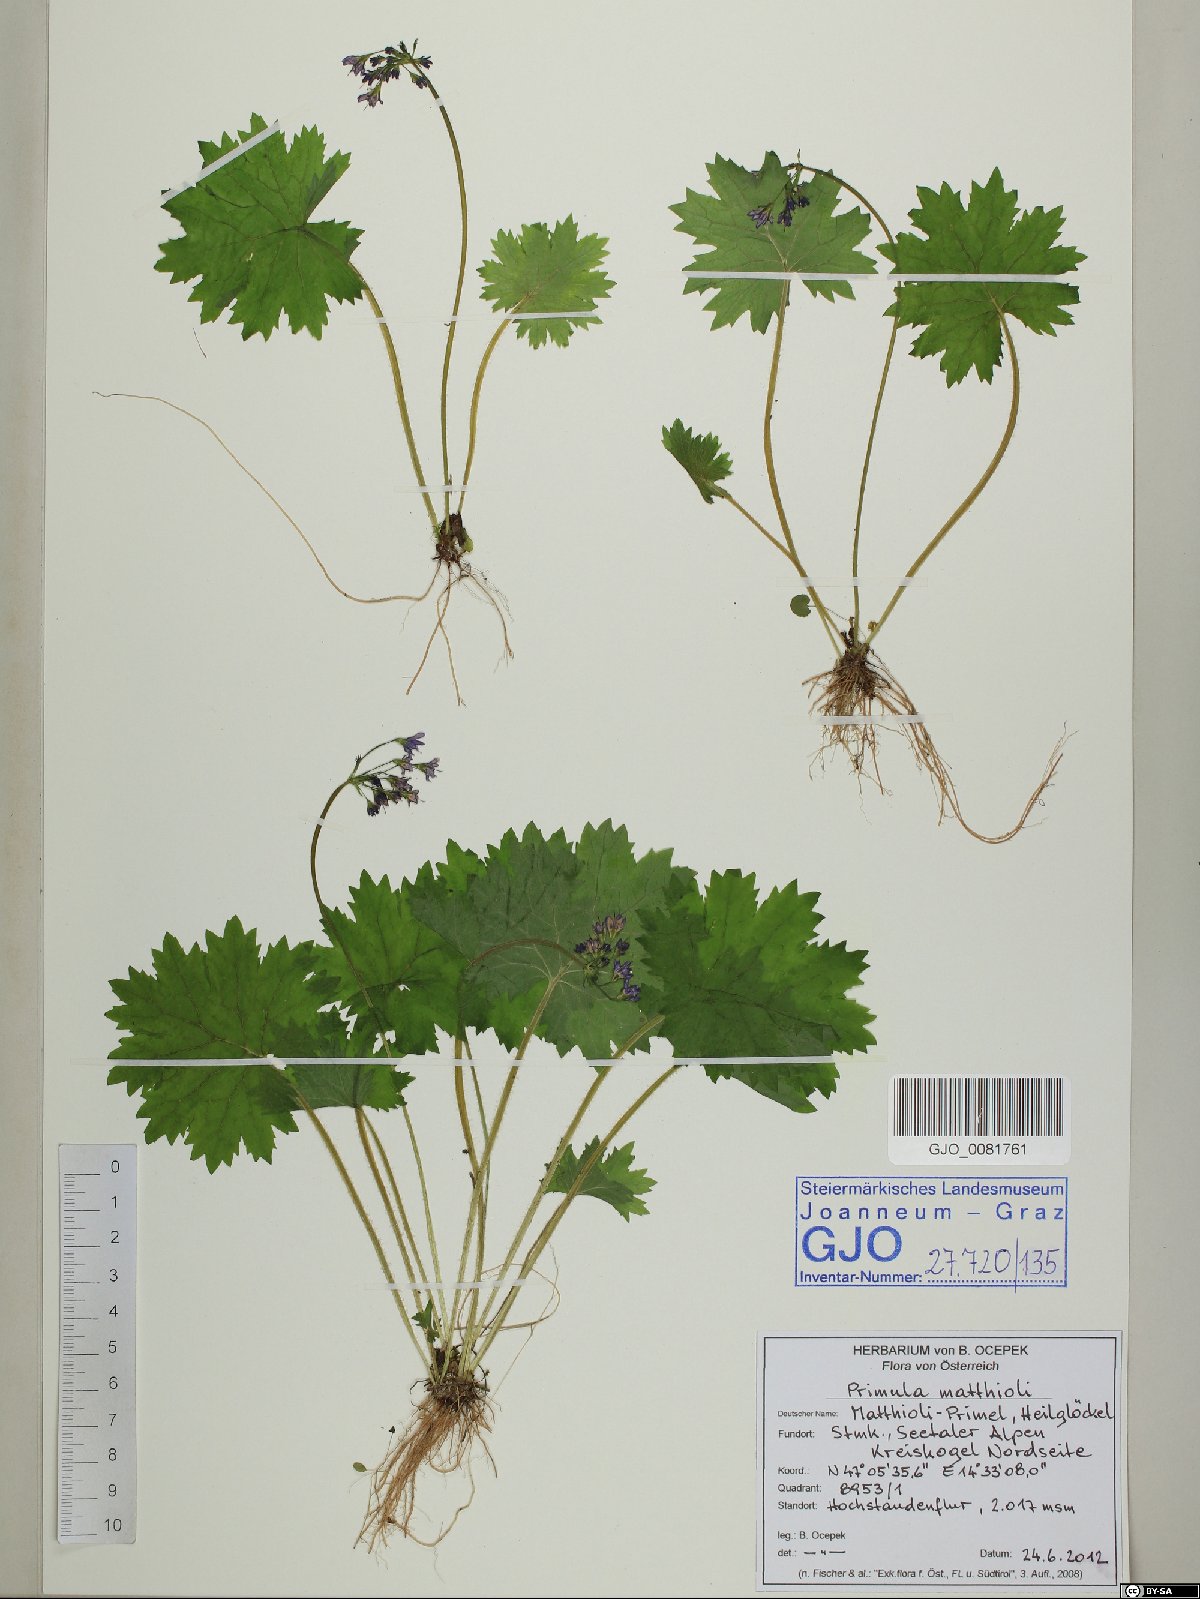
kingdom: Plantae
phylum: Tracheophyta
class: Magnoliopsida
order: Ericales
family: Primulaceae
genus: Primula
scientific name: Primula matthioli
